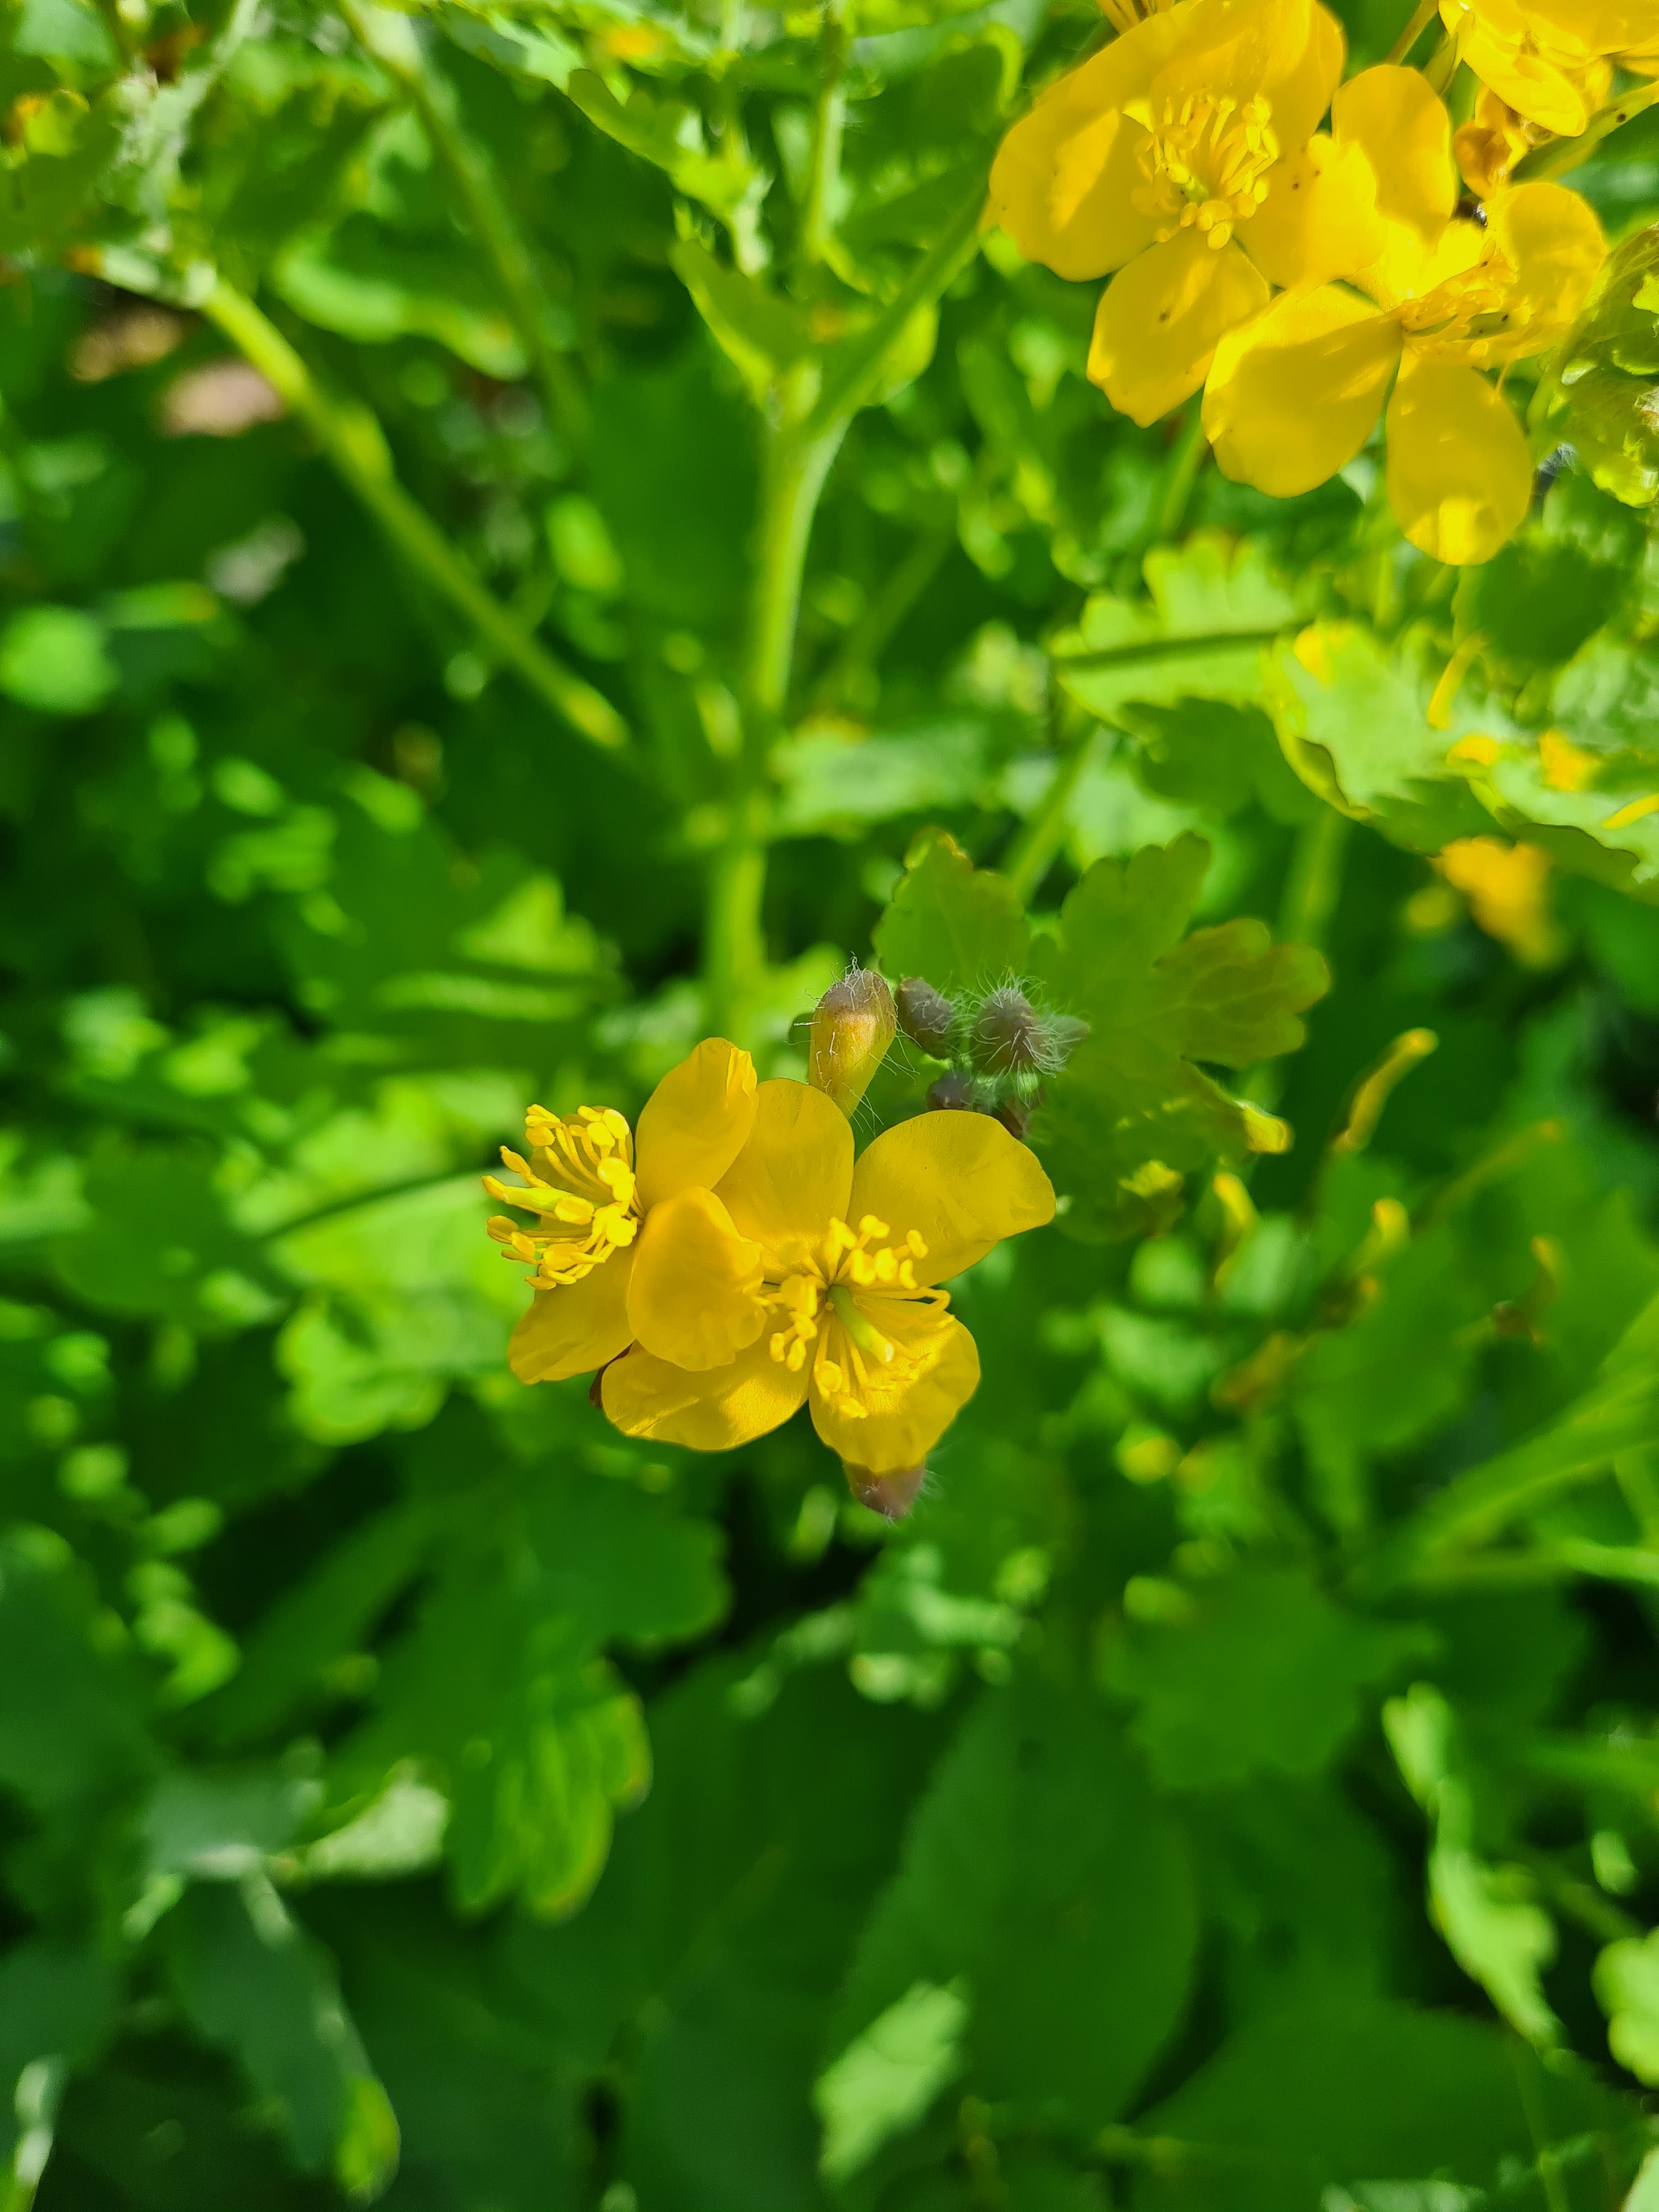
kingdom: Plantae
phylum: Tracheophyta
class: Magnoliopsida
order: Ranunculales
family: Papaveraceae
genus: Chelidonium
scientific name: Chelidonium majus
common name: Svaleurt
